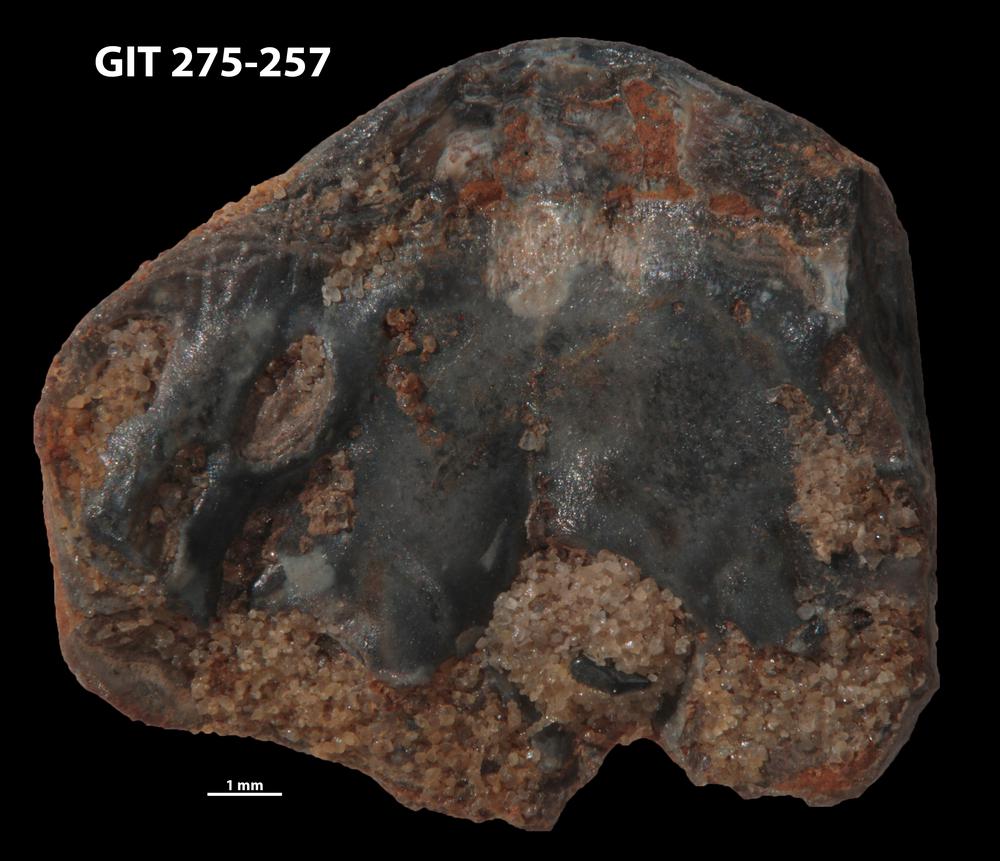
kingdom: Animalia
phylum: Porifera
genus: Ungula
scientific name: Ungula ingricus
